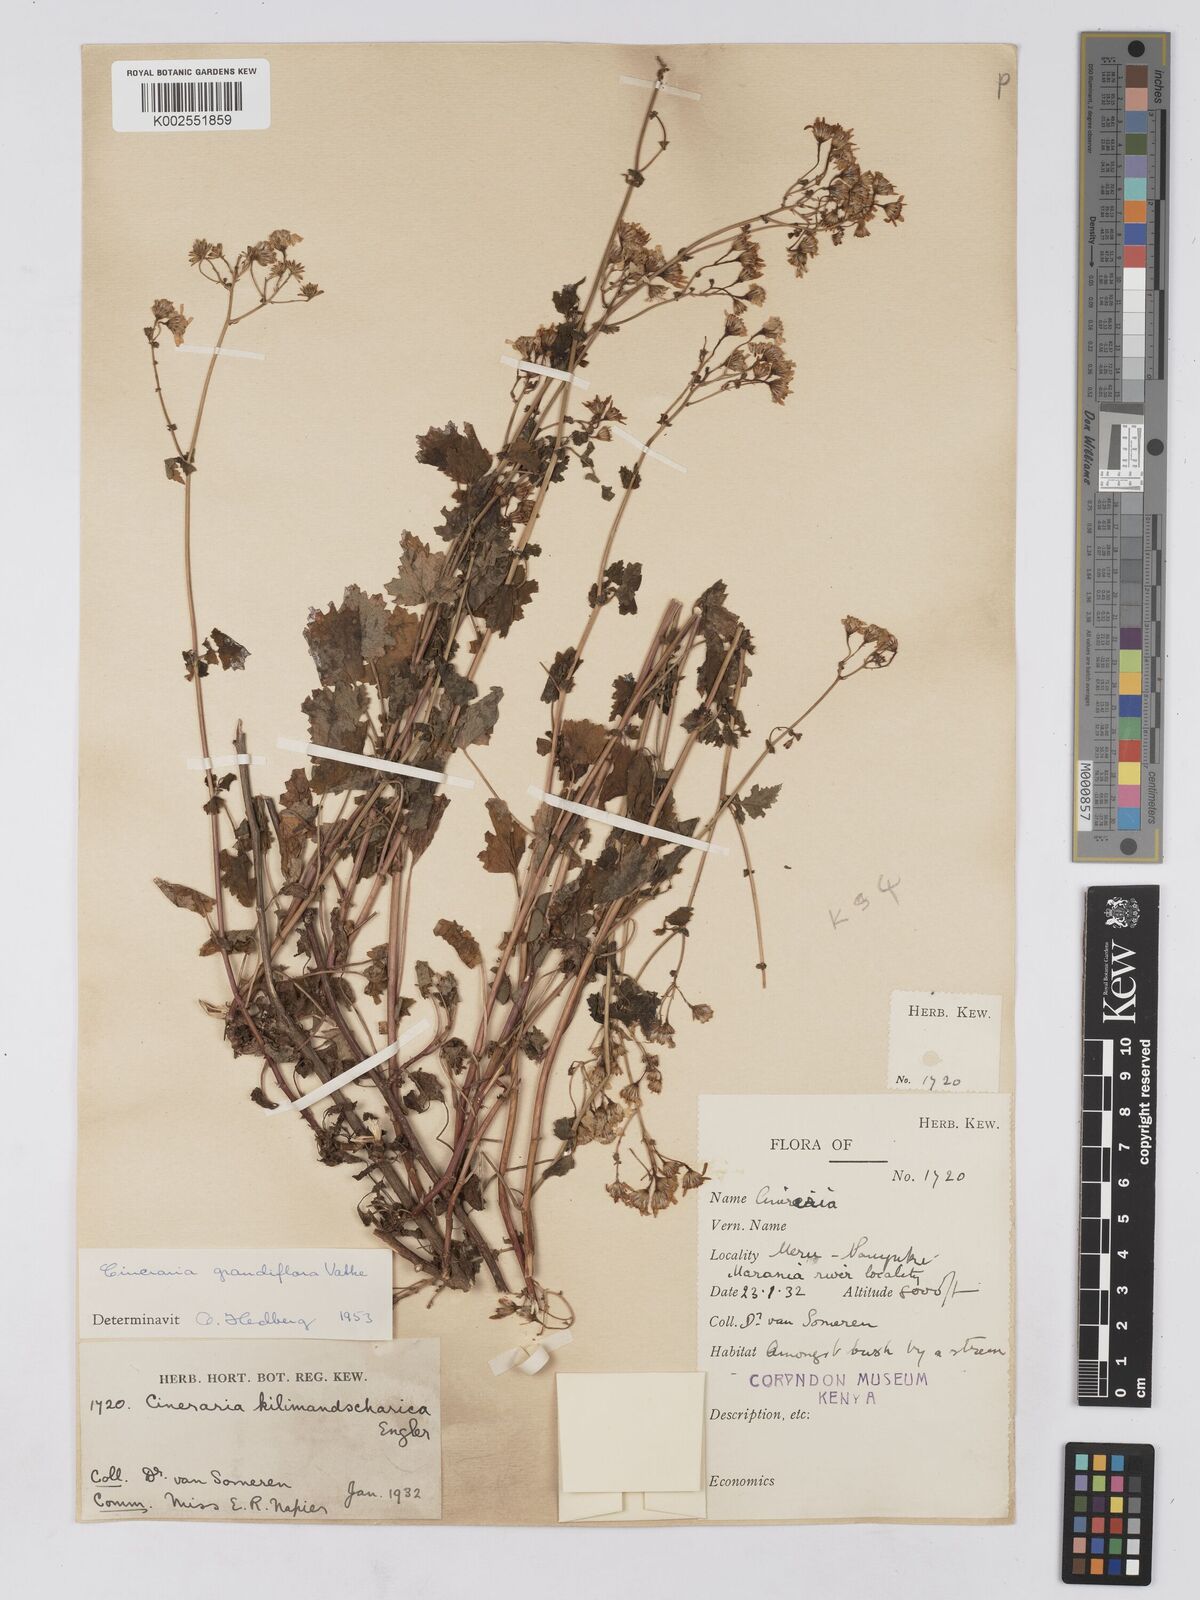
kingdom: Plantae
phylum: Tracheophyta
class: Magnoliopsida
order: Asterales
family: Asteraceae
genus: Cineraria
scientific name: Cineraria deltoidea
